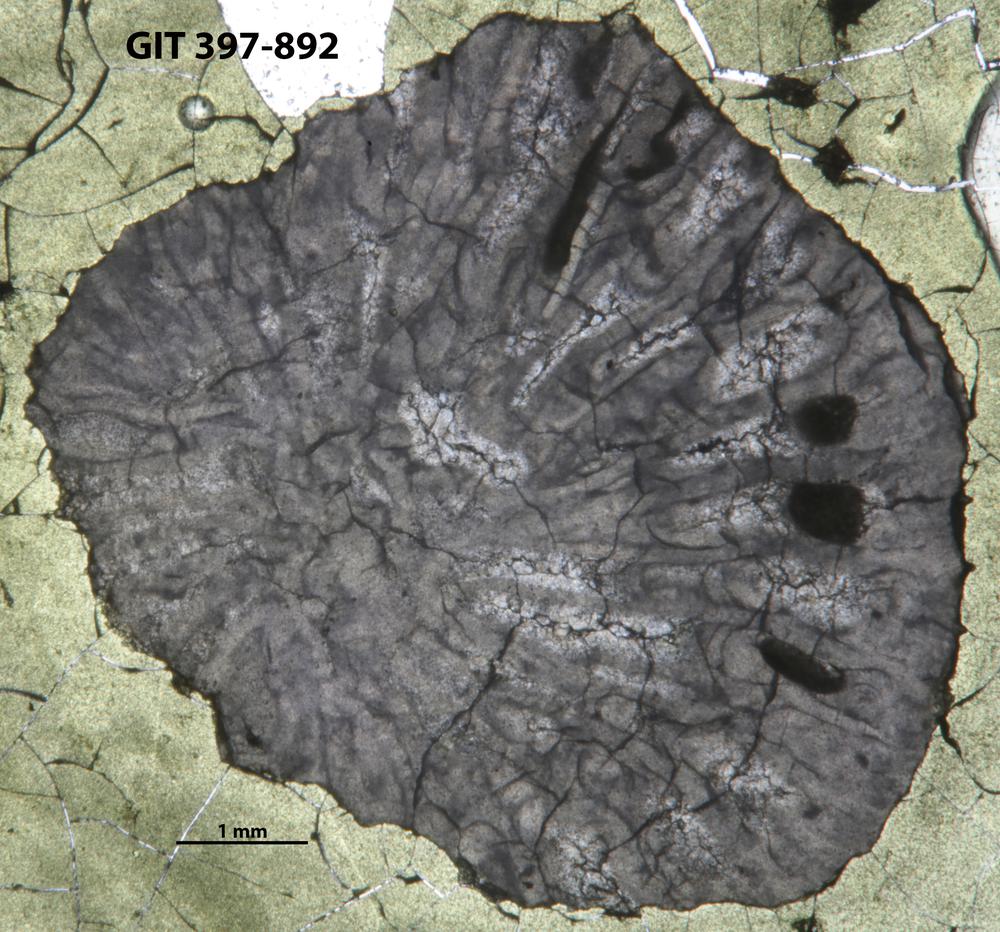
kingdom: Animalia
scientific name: Animalia
